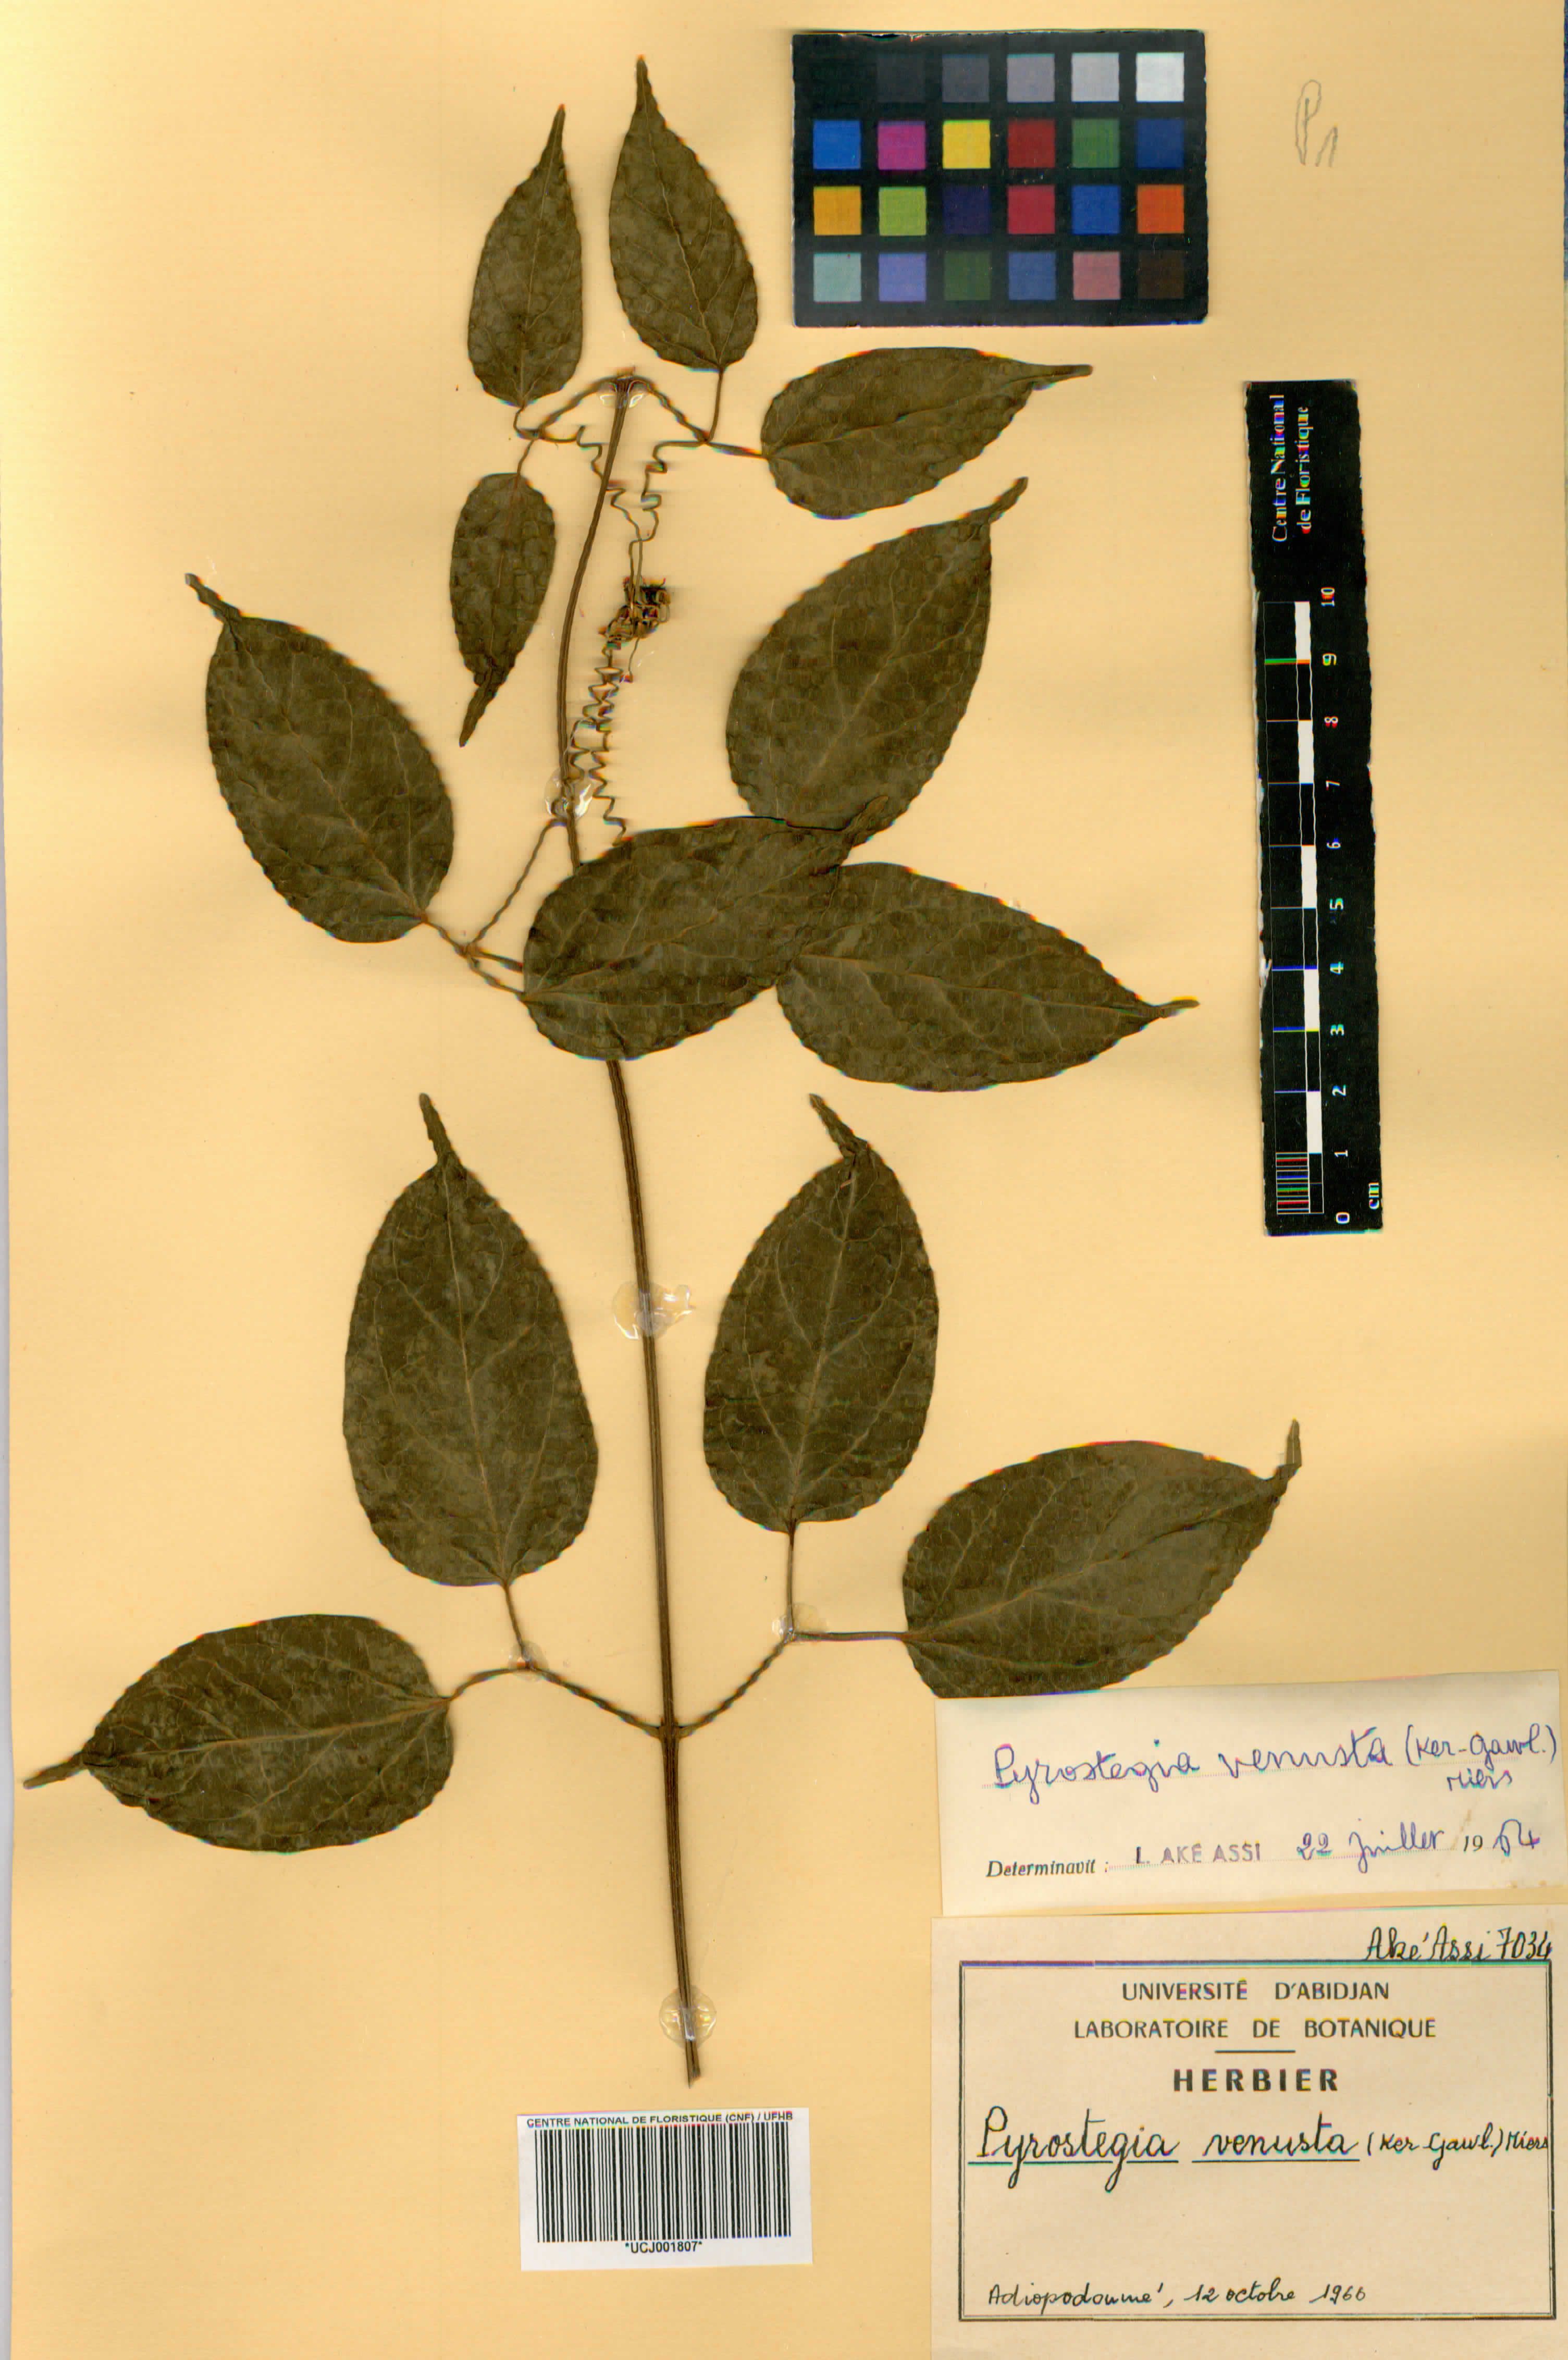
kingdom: Plantae
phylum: Tracheophyta
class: Magnoliopsida
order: Lamiales
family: Bignoniaceae
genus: Pyrostegia
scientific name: Pyrostegia venusta
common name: Flamevine
